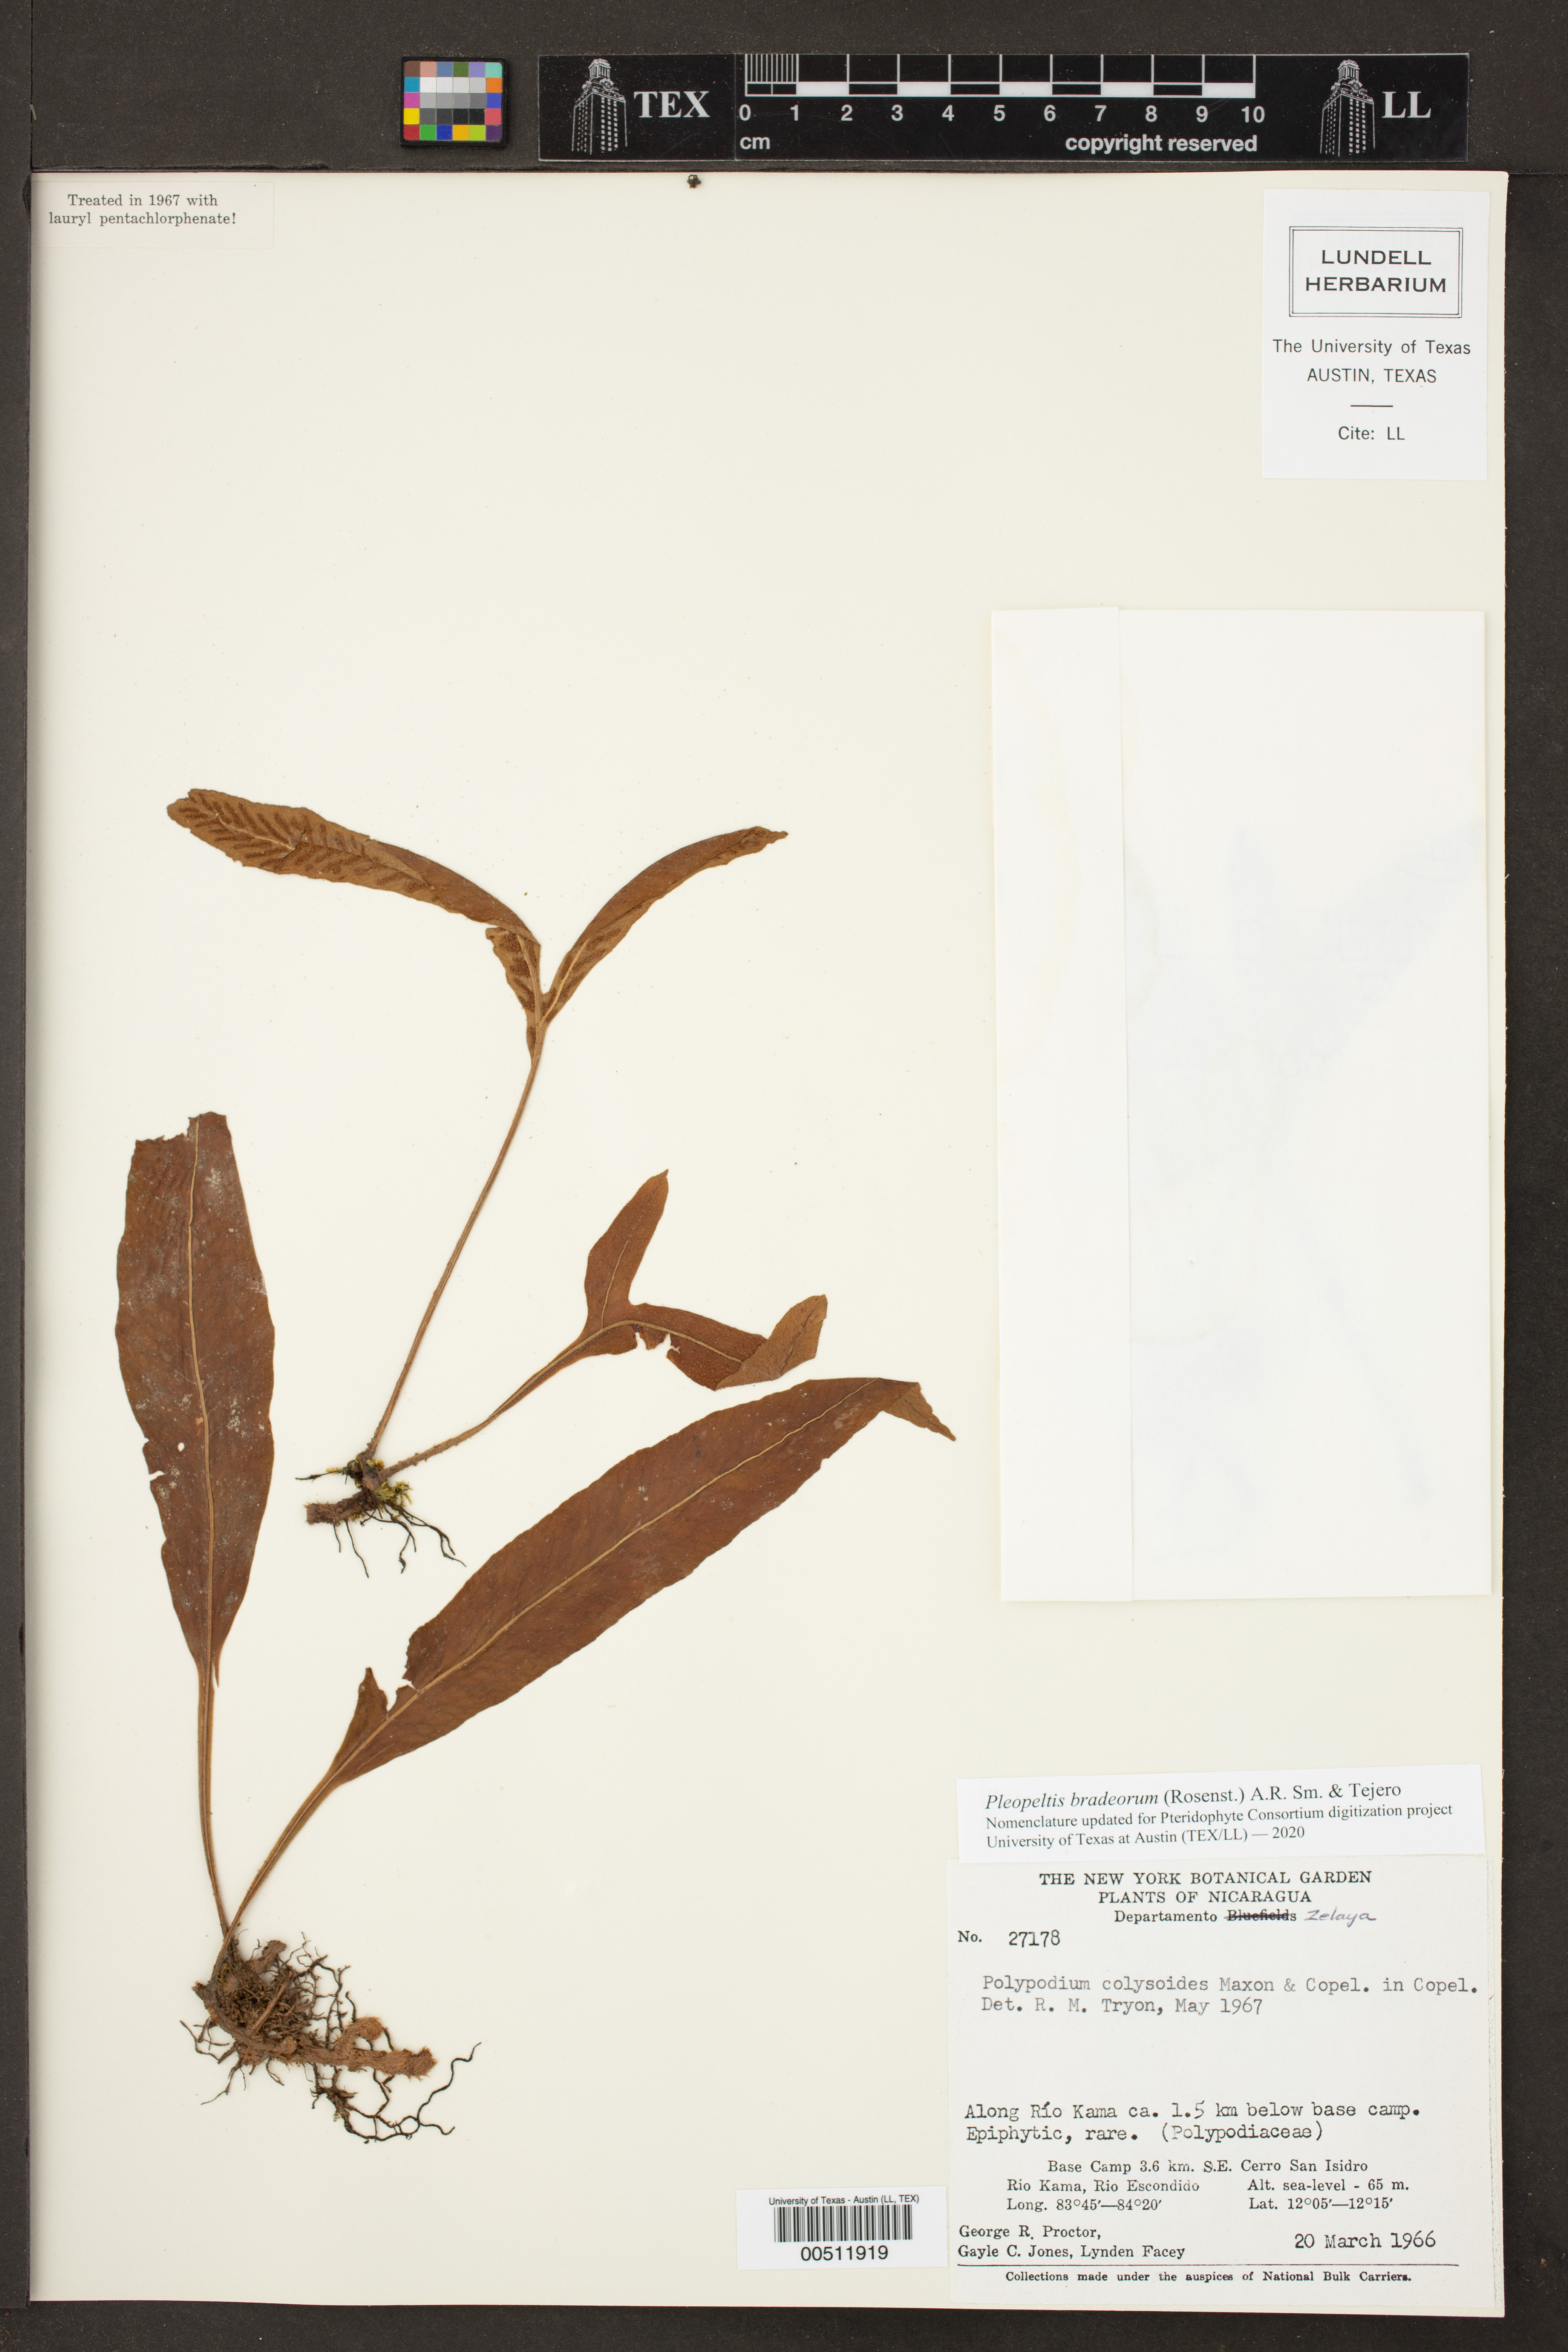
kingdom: Plantae
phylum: Tracheophyta
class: Polypodiopsida
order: Polypodiales
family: Polypodiaceae
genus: Pleopeltis
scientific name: Pleopeltis bradeorum
